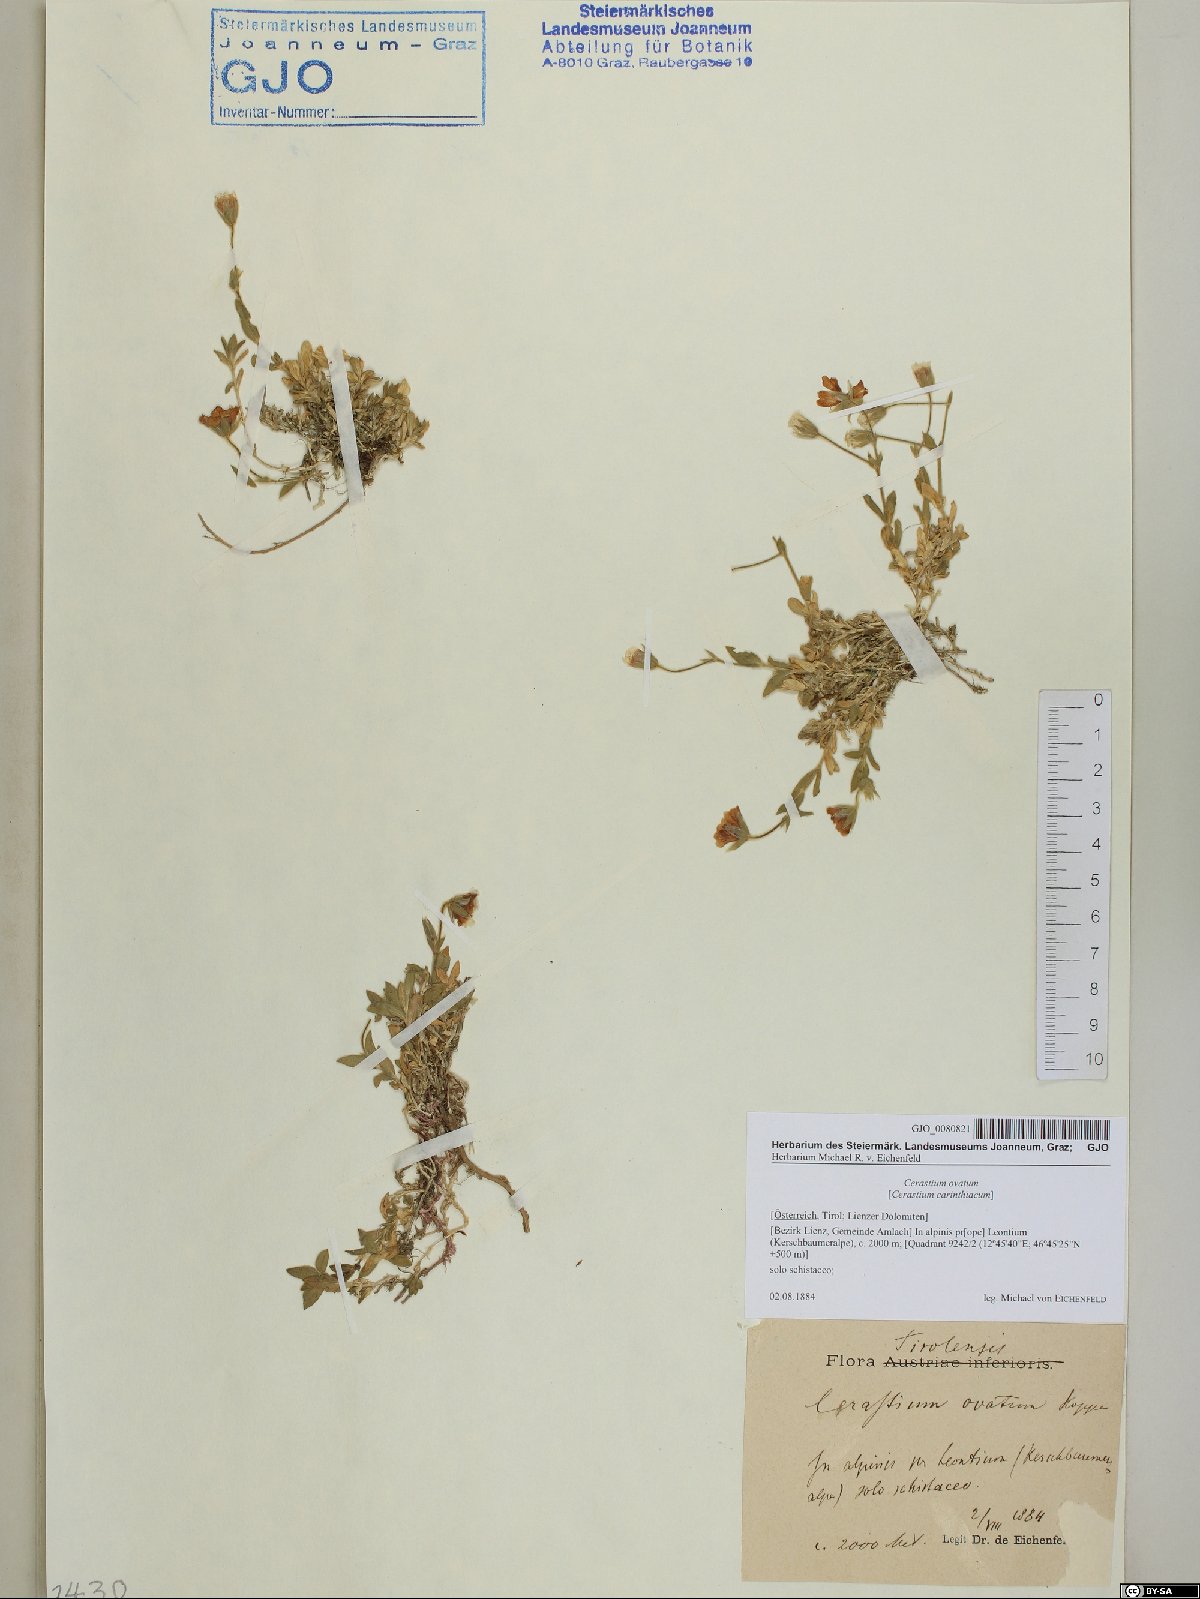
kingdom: Plantae
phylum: Tracheophyta
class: Magnoliopsida
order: Caryophyllales
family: Caryophyllaceae
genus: Cerastium
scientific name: Cerastium arvense
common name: Field mouse-ear
